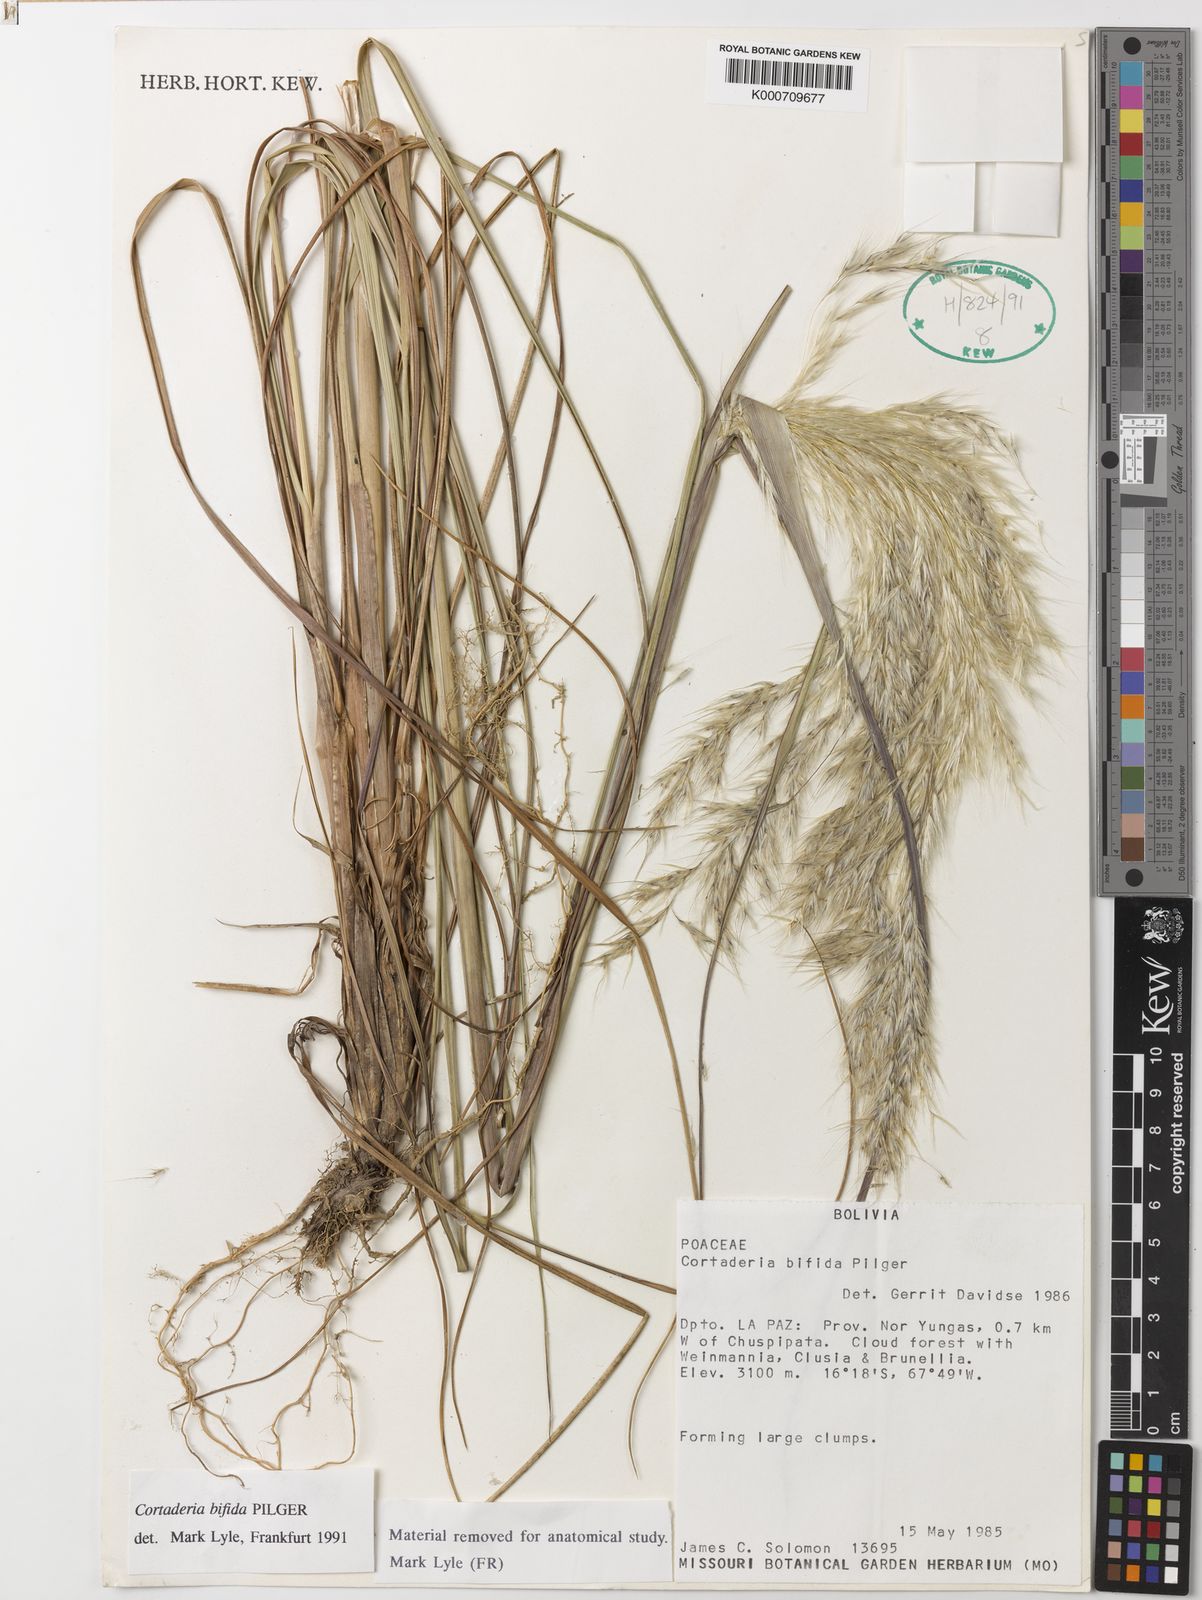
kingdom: Plantae
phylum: Tracheophyta
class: Liliopsida
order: Poales
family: Poaceae
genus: Cortaderia
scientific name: Cortaderia bifida
